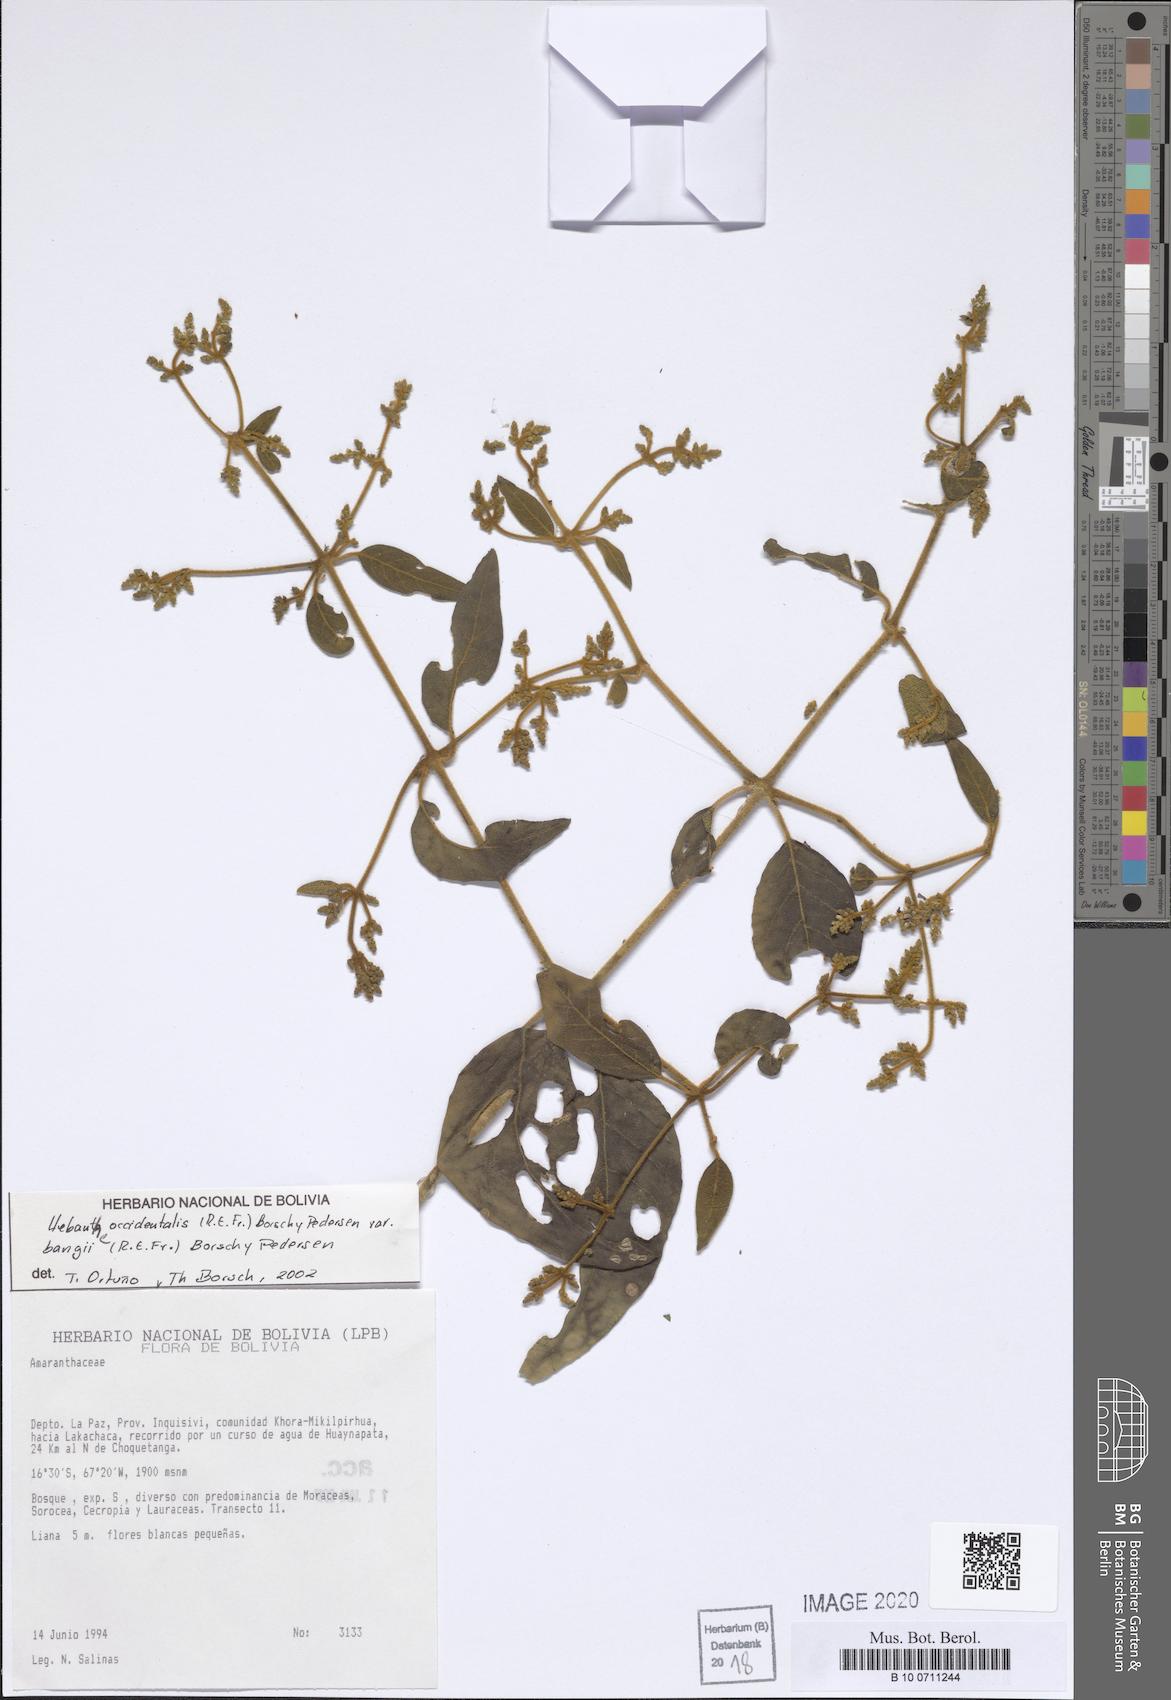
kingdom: Plantae
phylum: Tracheophyta
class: Magnoliopsida
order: Caryophyllales
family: Amaranthaceae
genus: Hebanthe
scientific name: Hebanthe occidentalis
